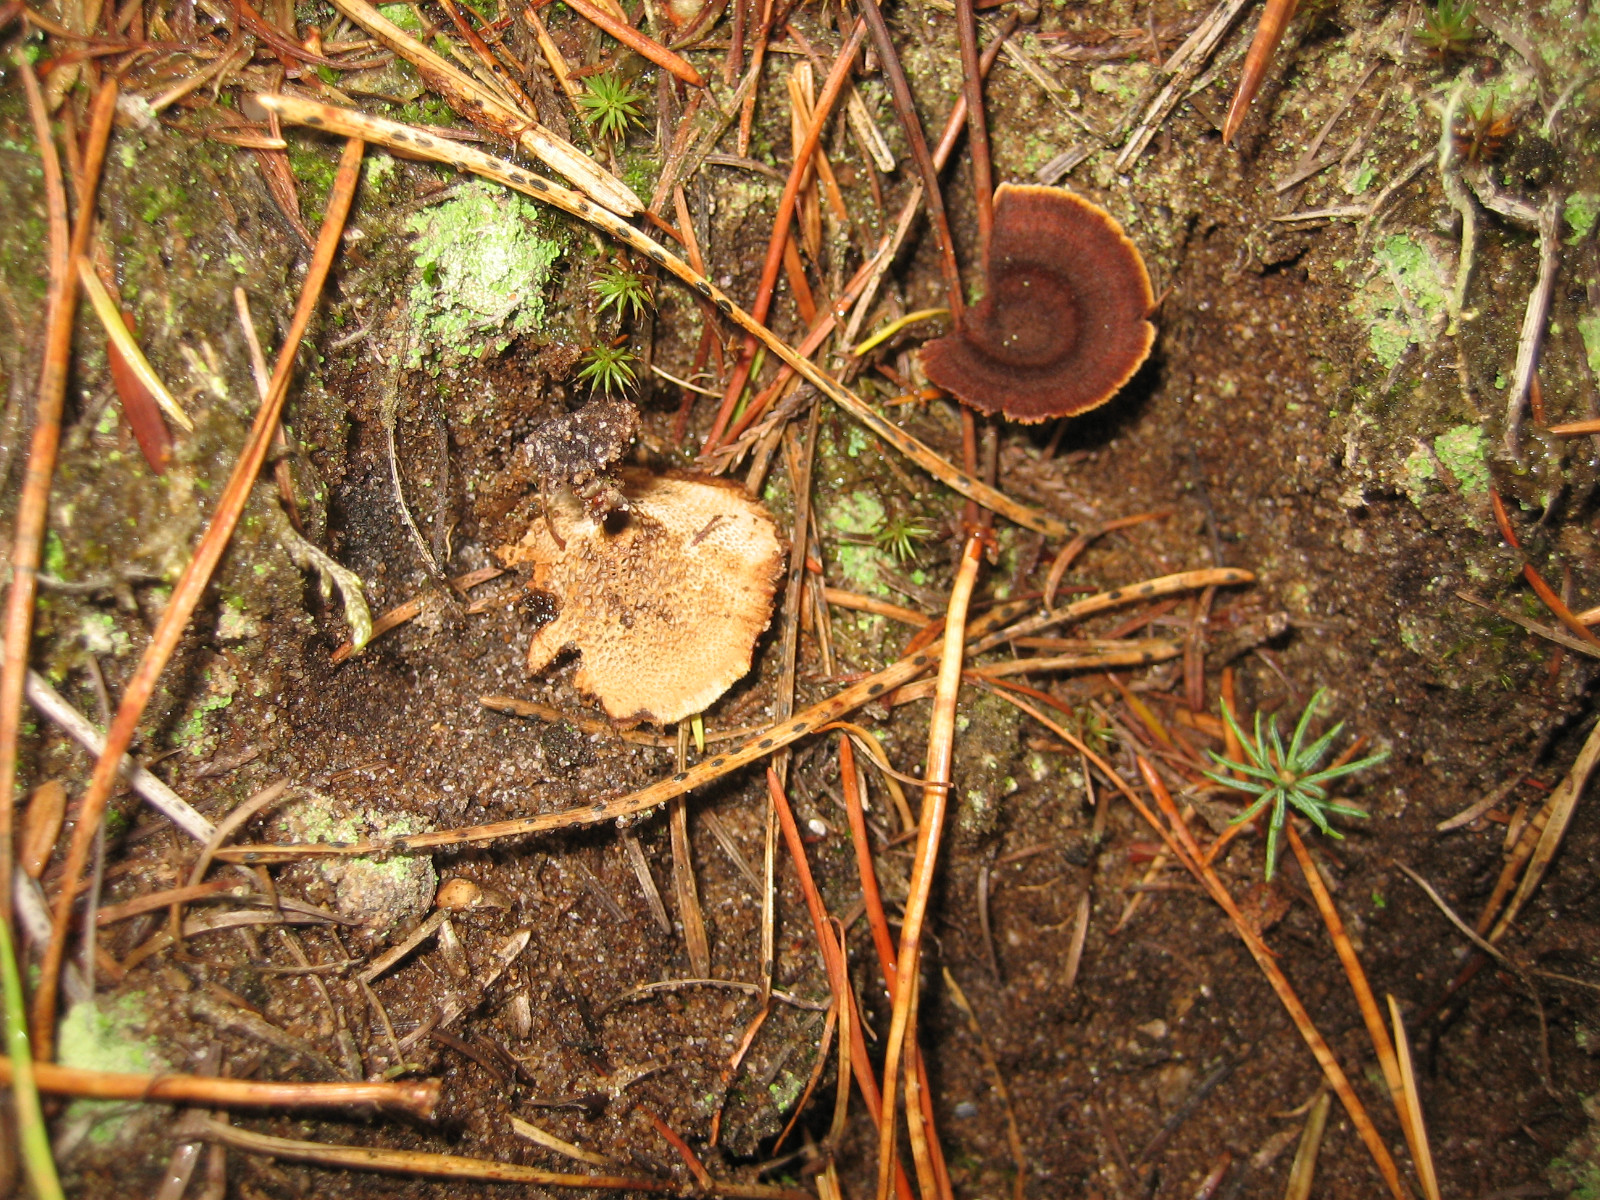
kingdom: Fungi
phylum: Basidiomycota
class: Agaricomycetes
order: Hymenochaetales
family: Hymenochaetaceae
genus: Coltricia
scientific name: Coltricia perennis
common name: almindelig sandporesvamp
